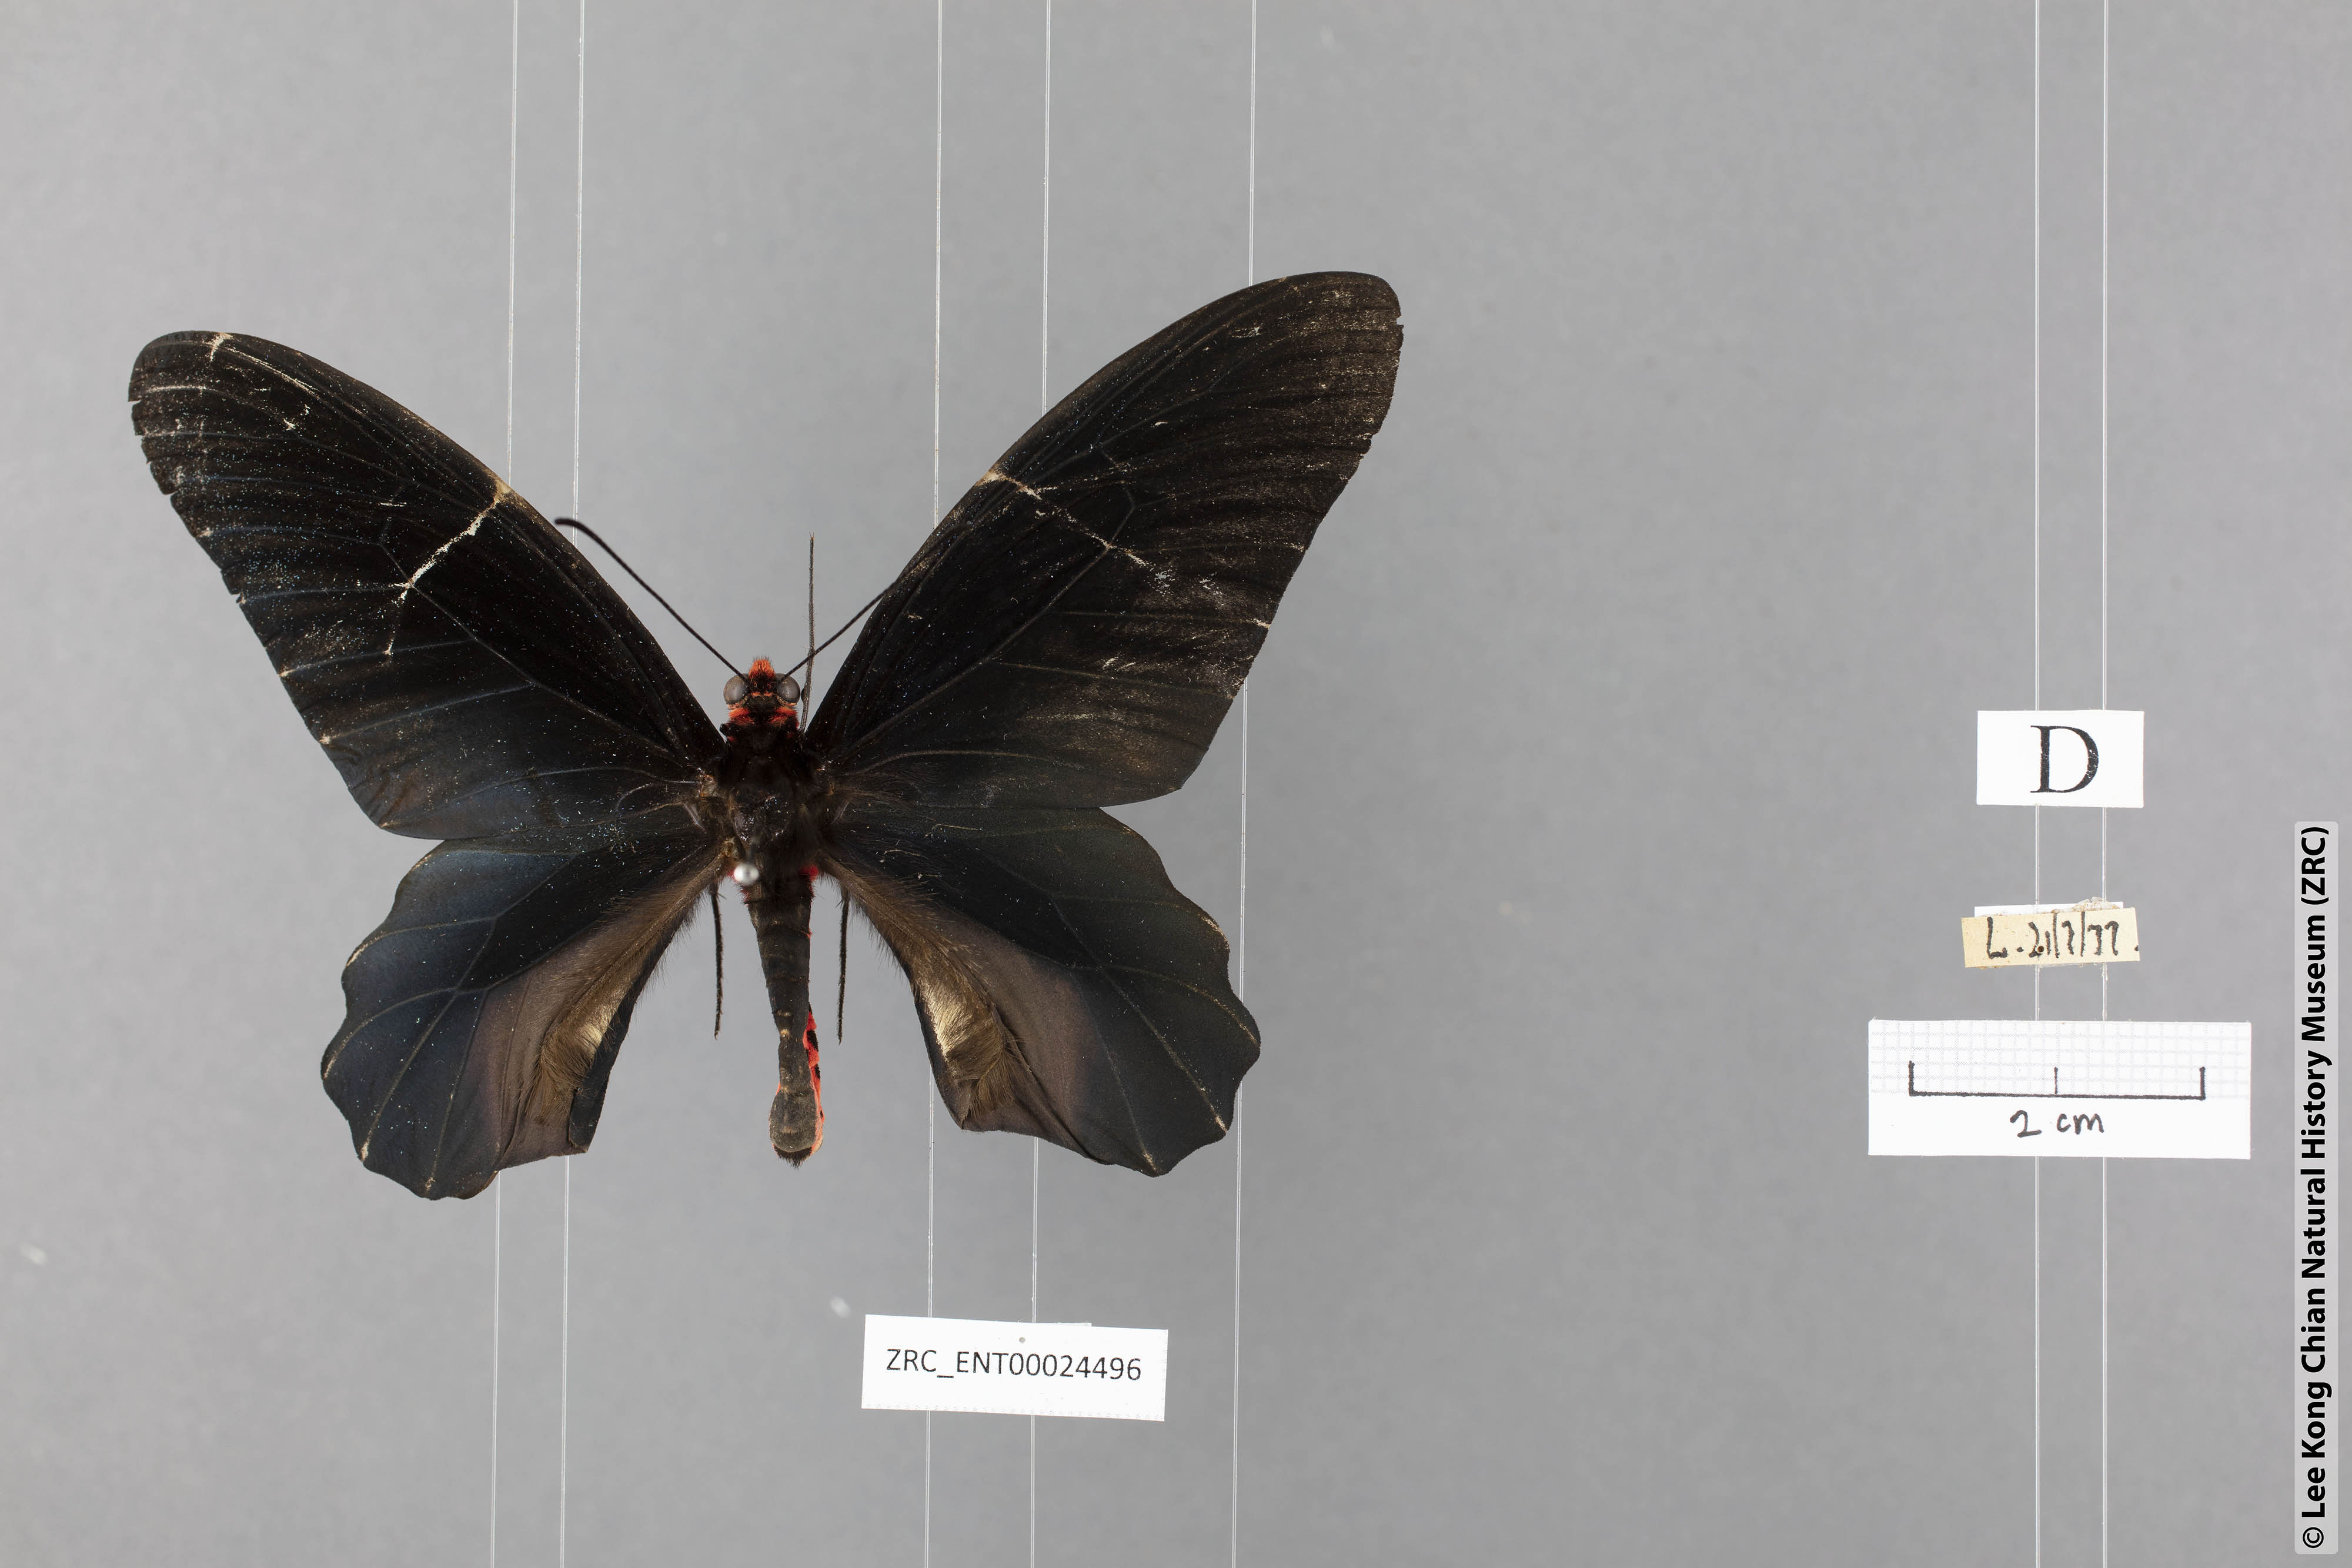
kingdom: Animalia
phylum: Arthropoda
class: Insecta
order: Lepidoptera
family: Papilionidae
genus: Atrophaneura
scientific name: Atrophaneura varuna
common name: Common batwing
